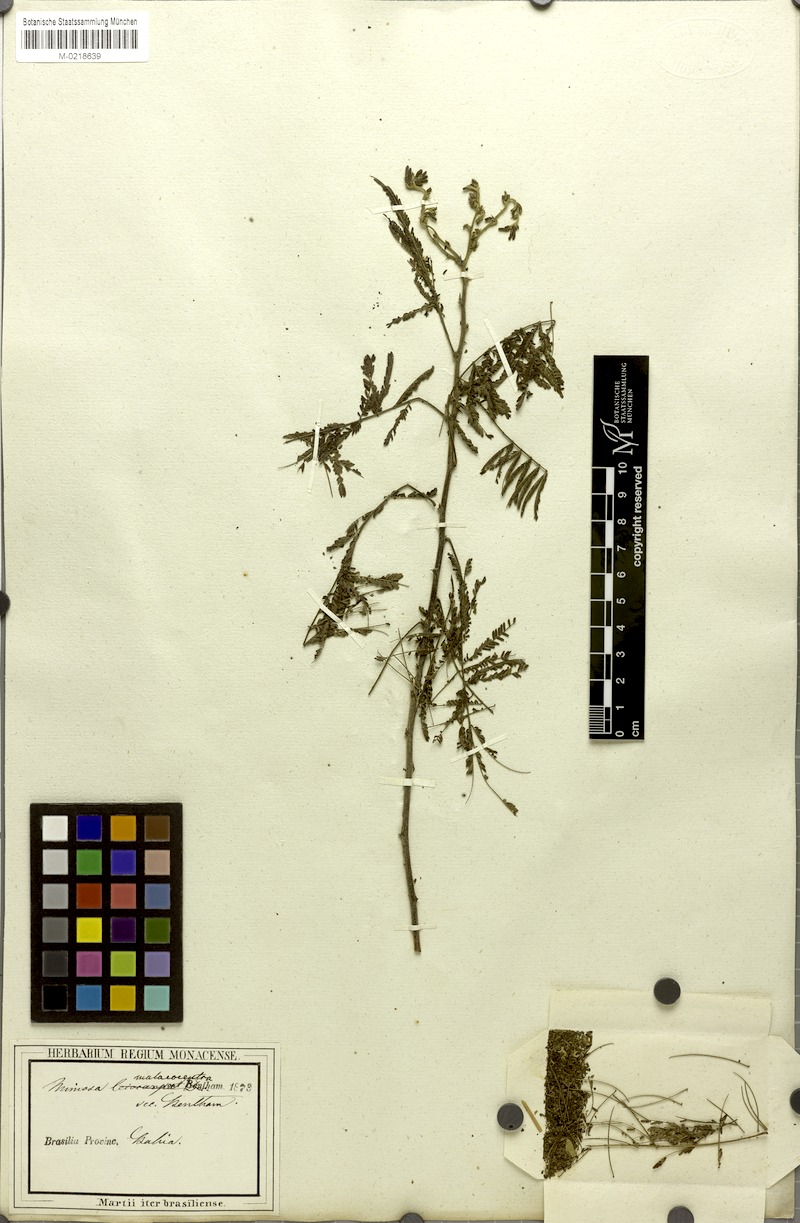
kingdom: Plantae
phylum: Tracheophyta
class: Magnoliopsida
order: Fabales
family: Fabaceae
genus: Mimosa
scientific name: Mimosa arenosa
